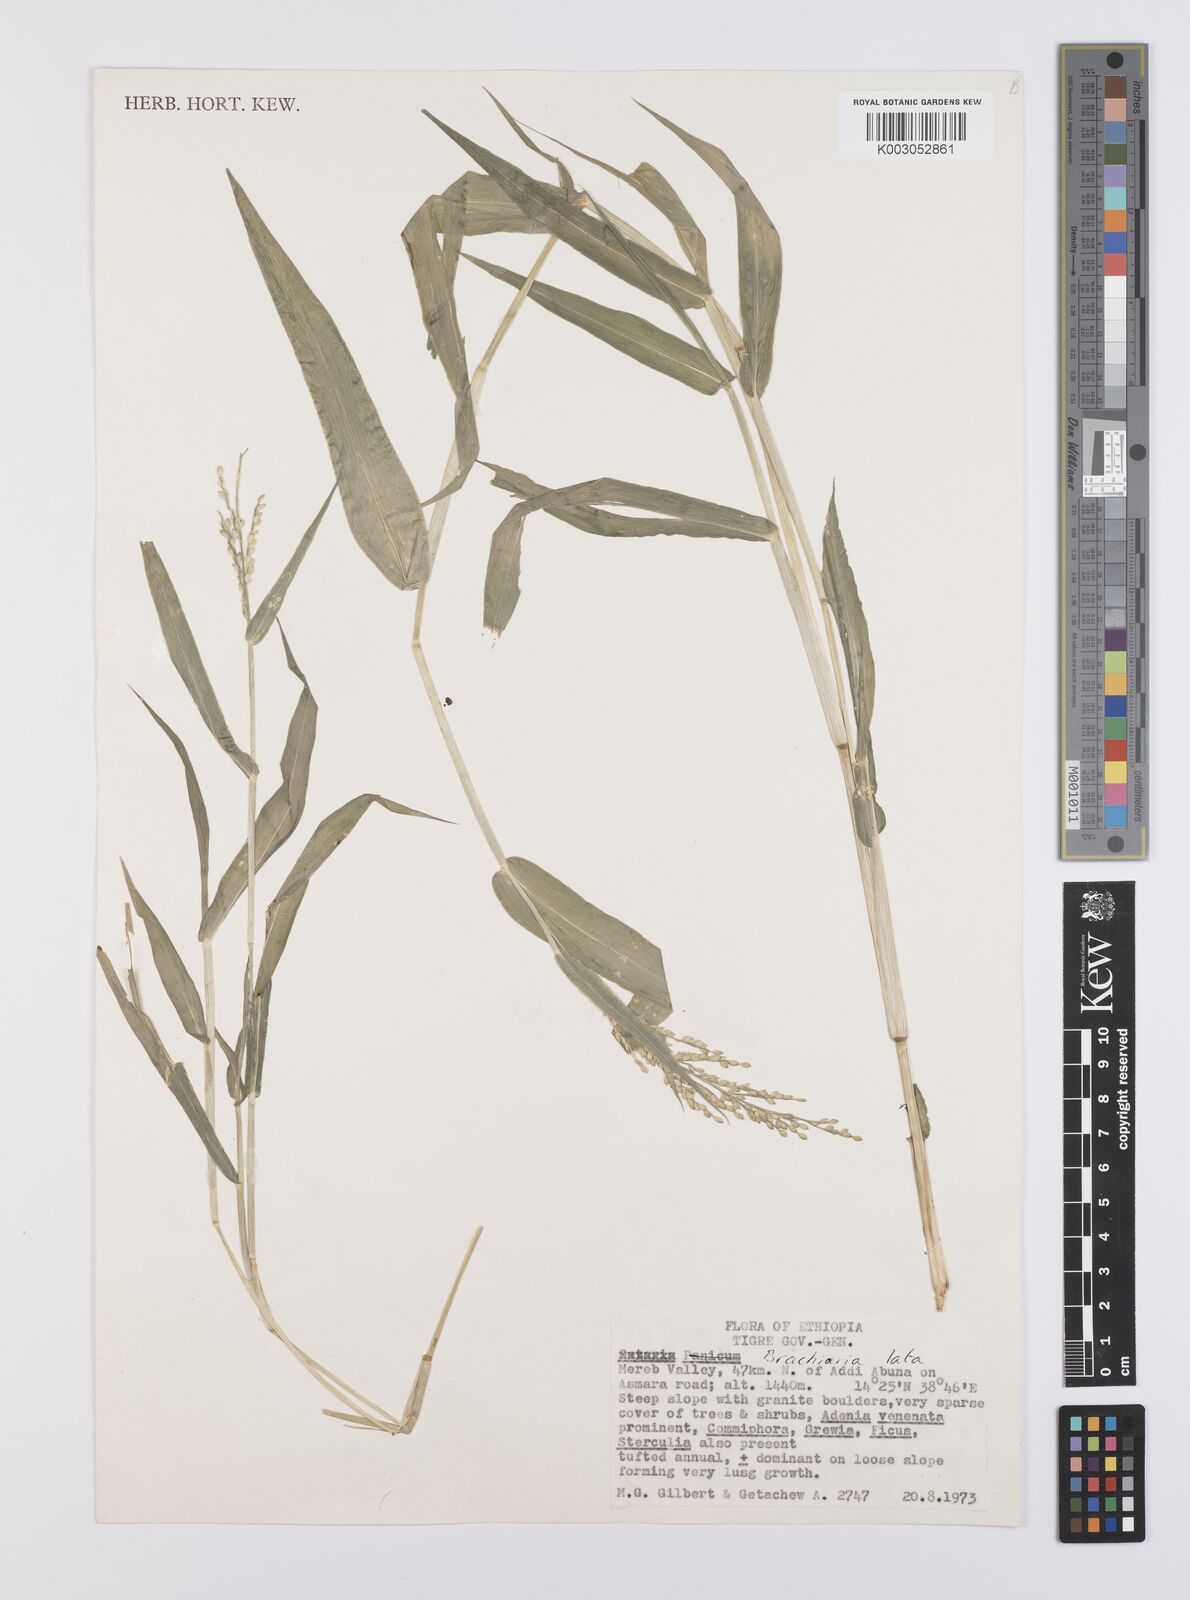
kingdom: Plantae
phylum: Tracheophyta
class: Liliopsida
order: Poales
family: Poaceae
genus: Urochloa
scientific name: Urochloa lata
